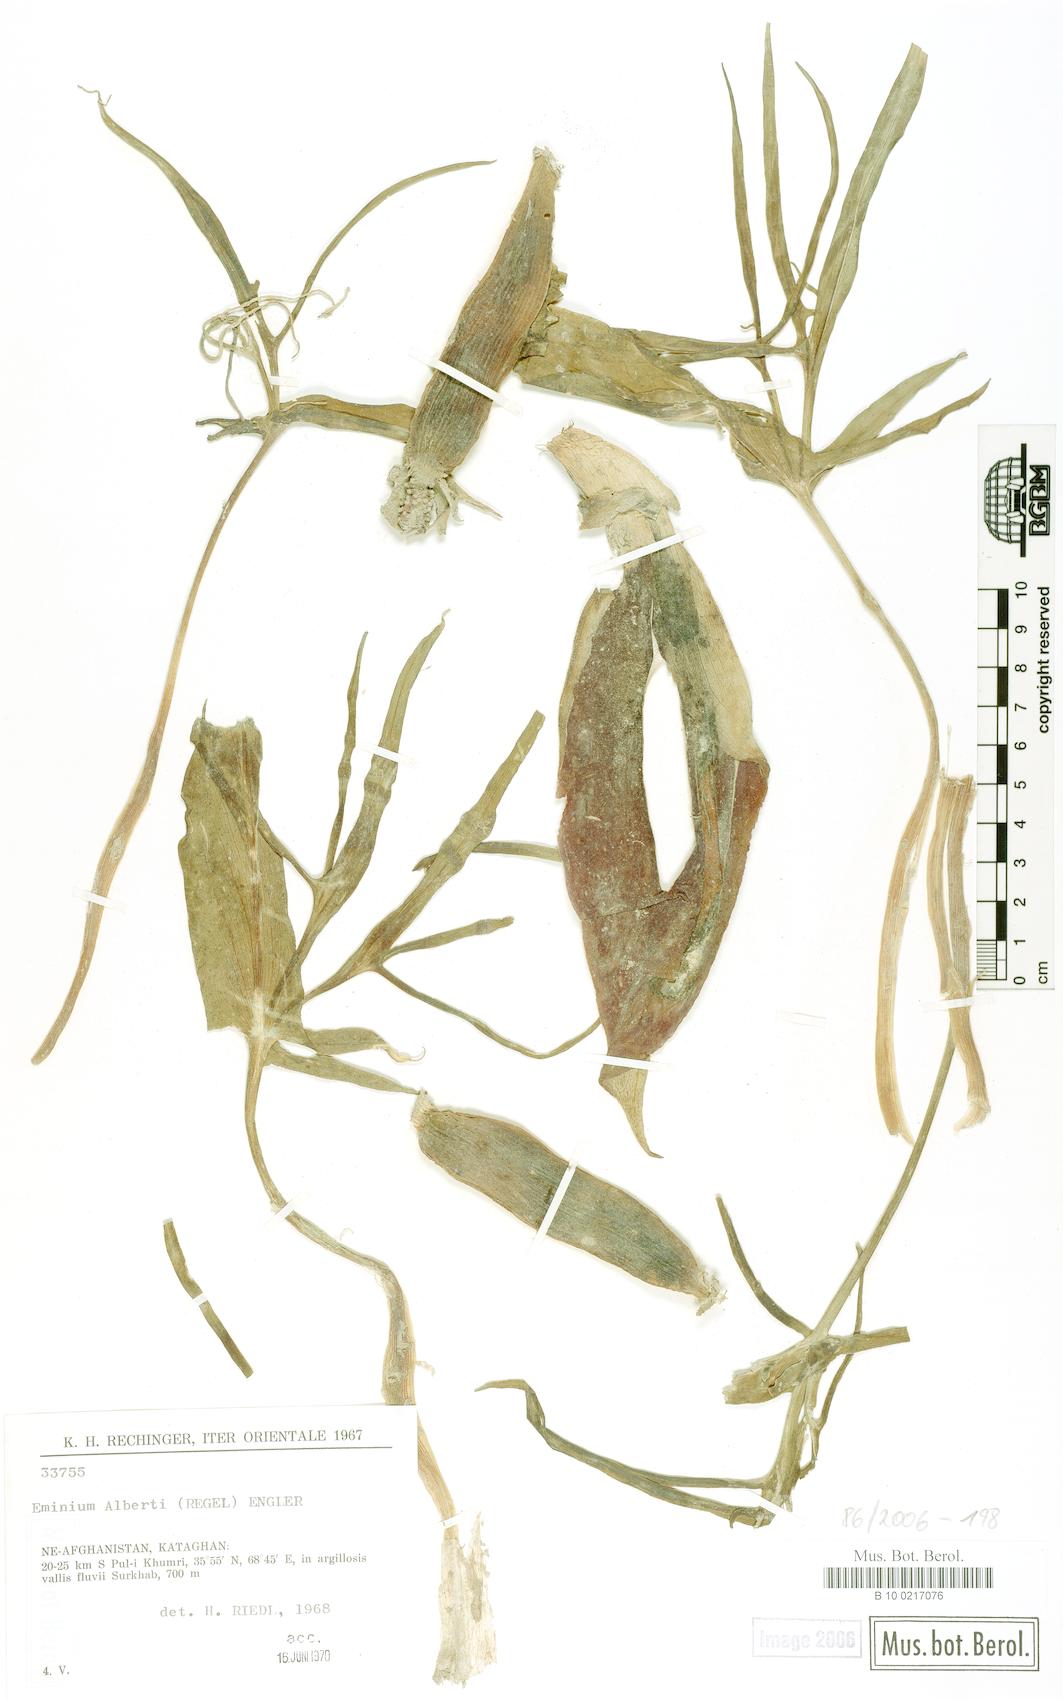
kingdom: Plantae
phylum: Tracheophyta
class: Liliopsida
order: Alismatales
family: Araceae
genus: Eminium
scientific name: Eminium alberti
